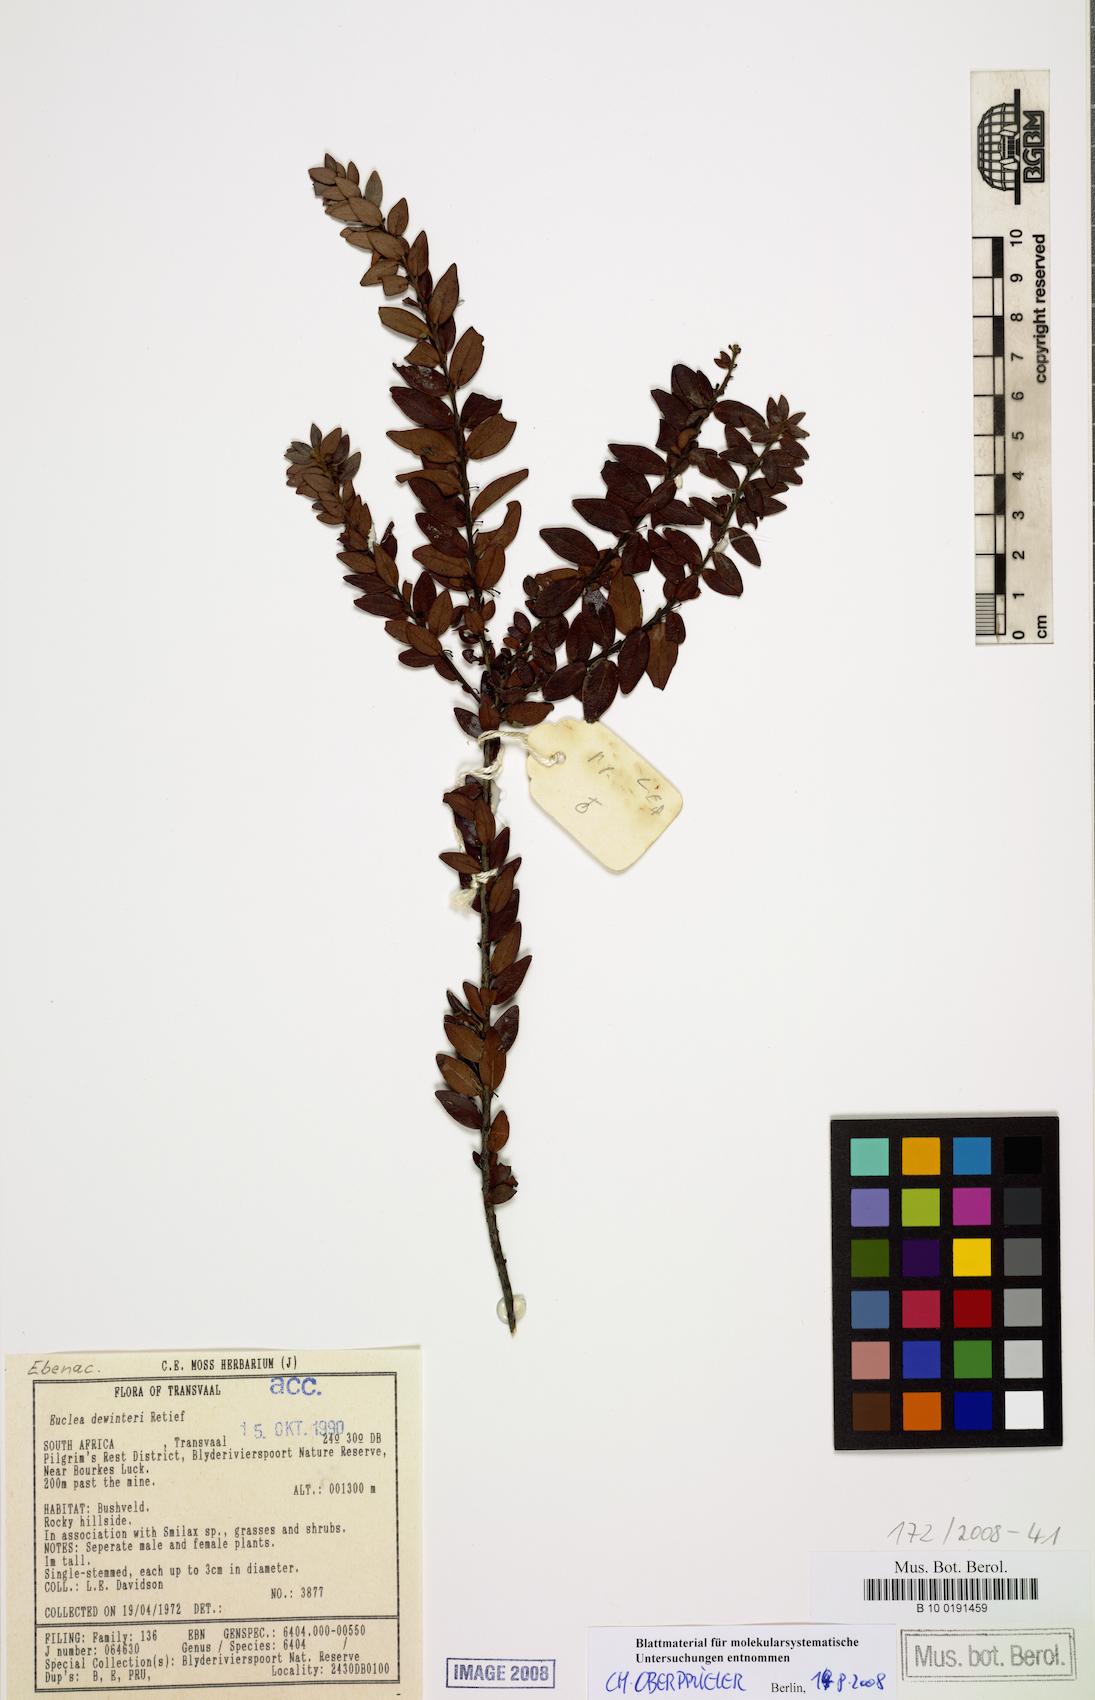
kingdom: Plantae
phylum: Tracheophyta
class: Magnoliopsida
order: Ericales
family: Ebenaceae
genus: Euclea
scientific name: Euclea dewinteri
